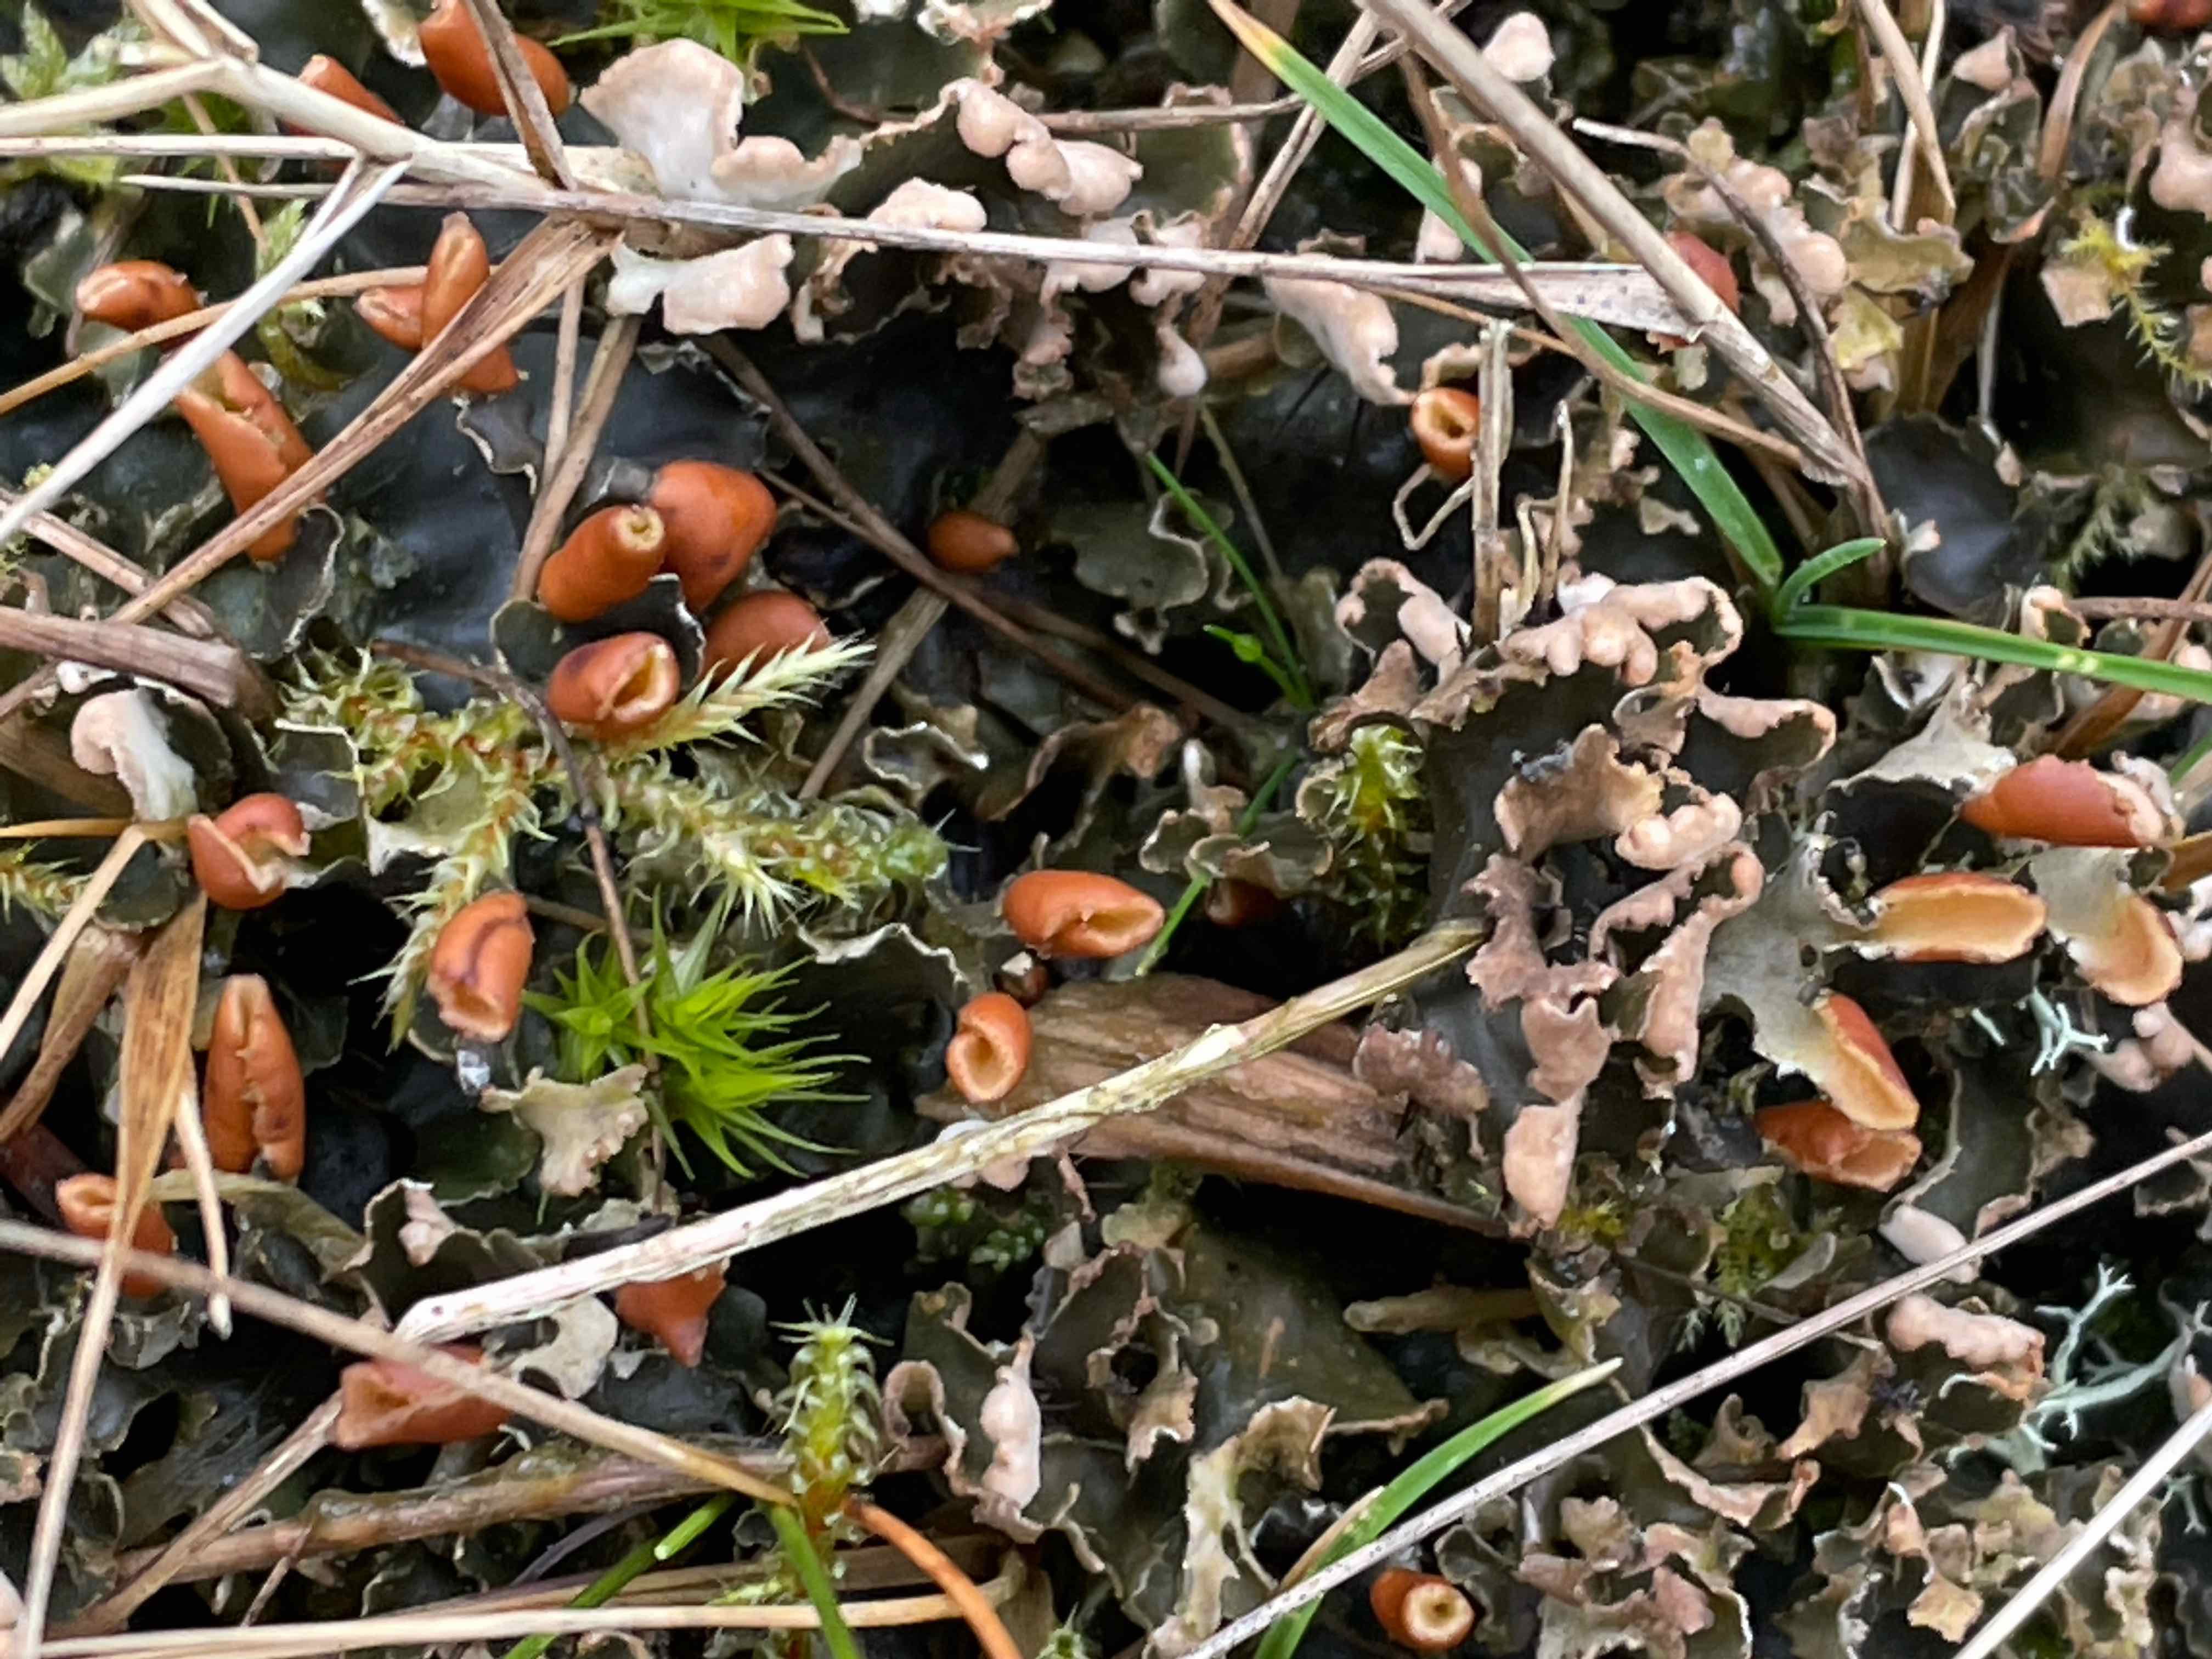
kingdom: Fungi
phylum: Ascomycota
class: Lecanoromycetes
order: Peltigerales
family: Peltigeraceae
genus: Peltigera
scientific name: Peltigera hymenina
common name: hinde-skjoldlav
